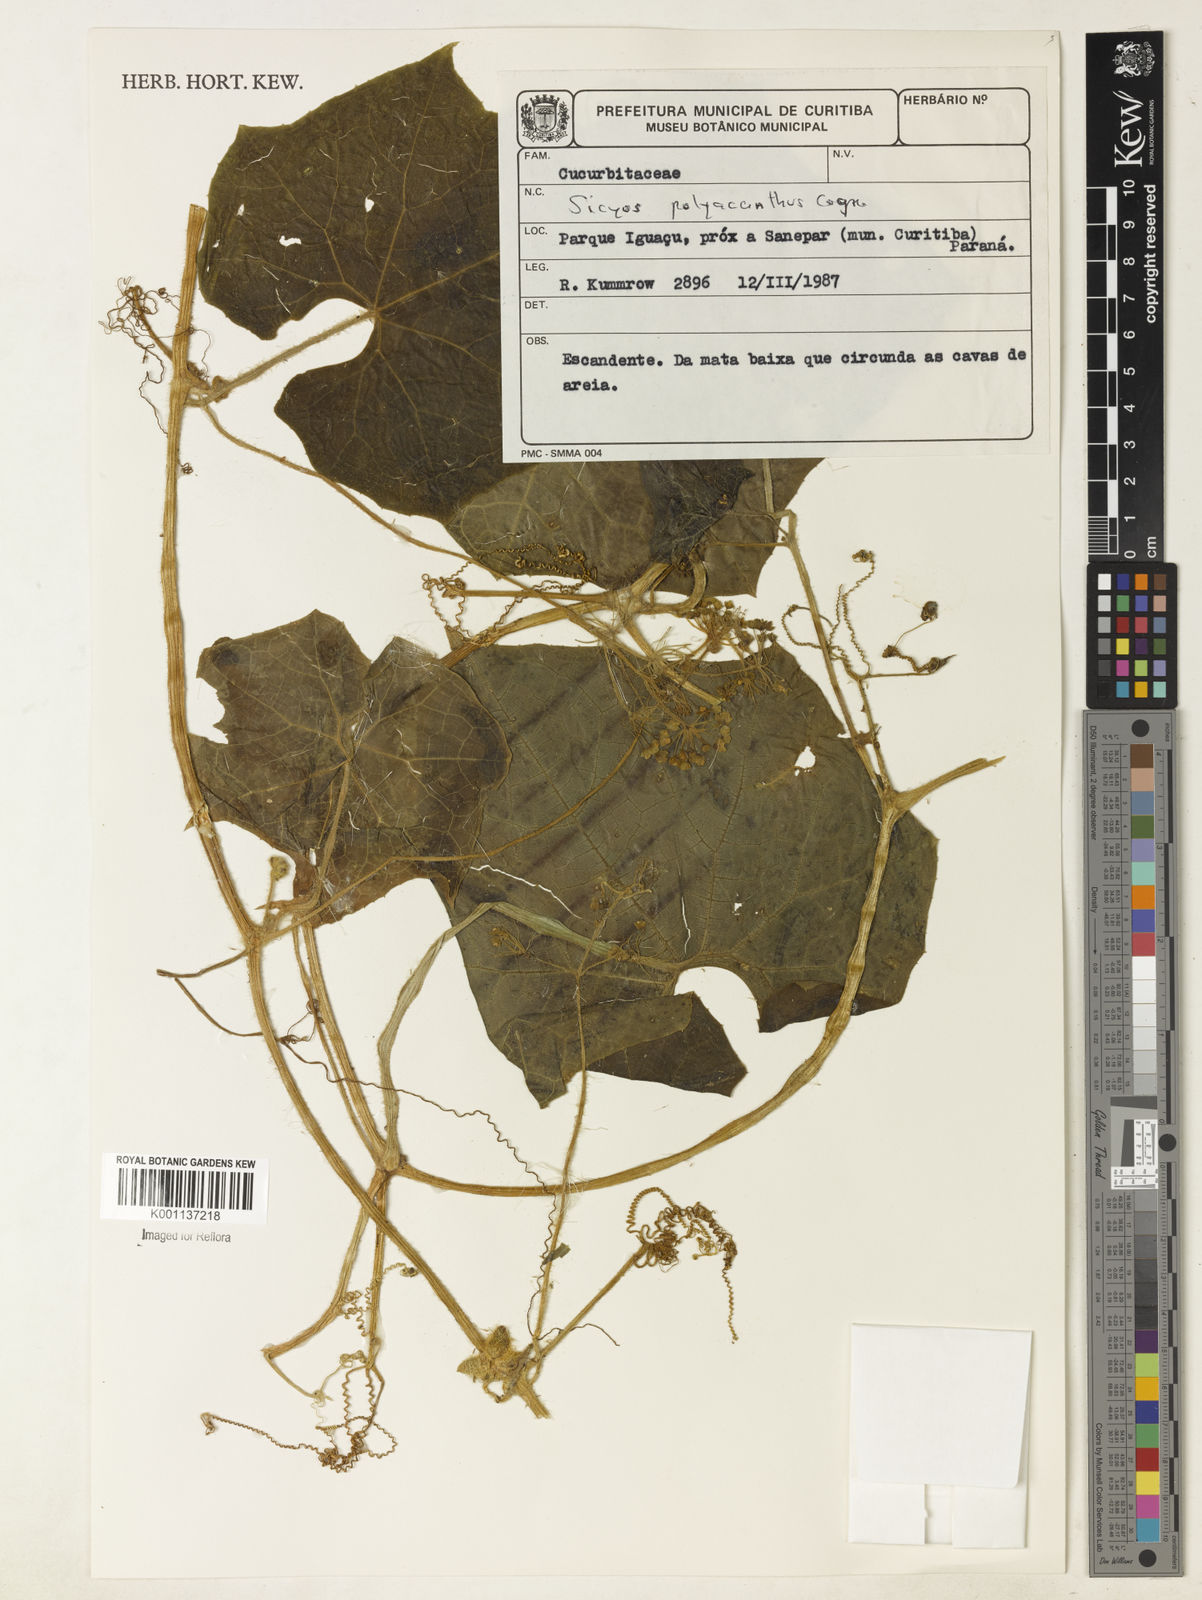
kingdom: Plantae
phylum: Tracheophyta
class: Magnoliopsida
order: Cucurbitales
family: Cucurbitaceae
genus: Sicyos
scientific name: Sicyos polyacanthos
